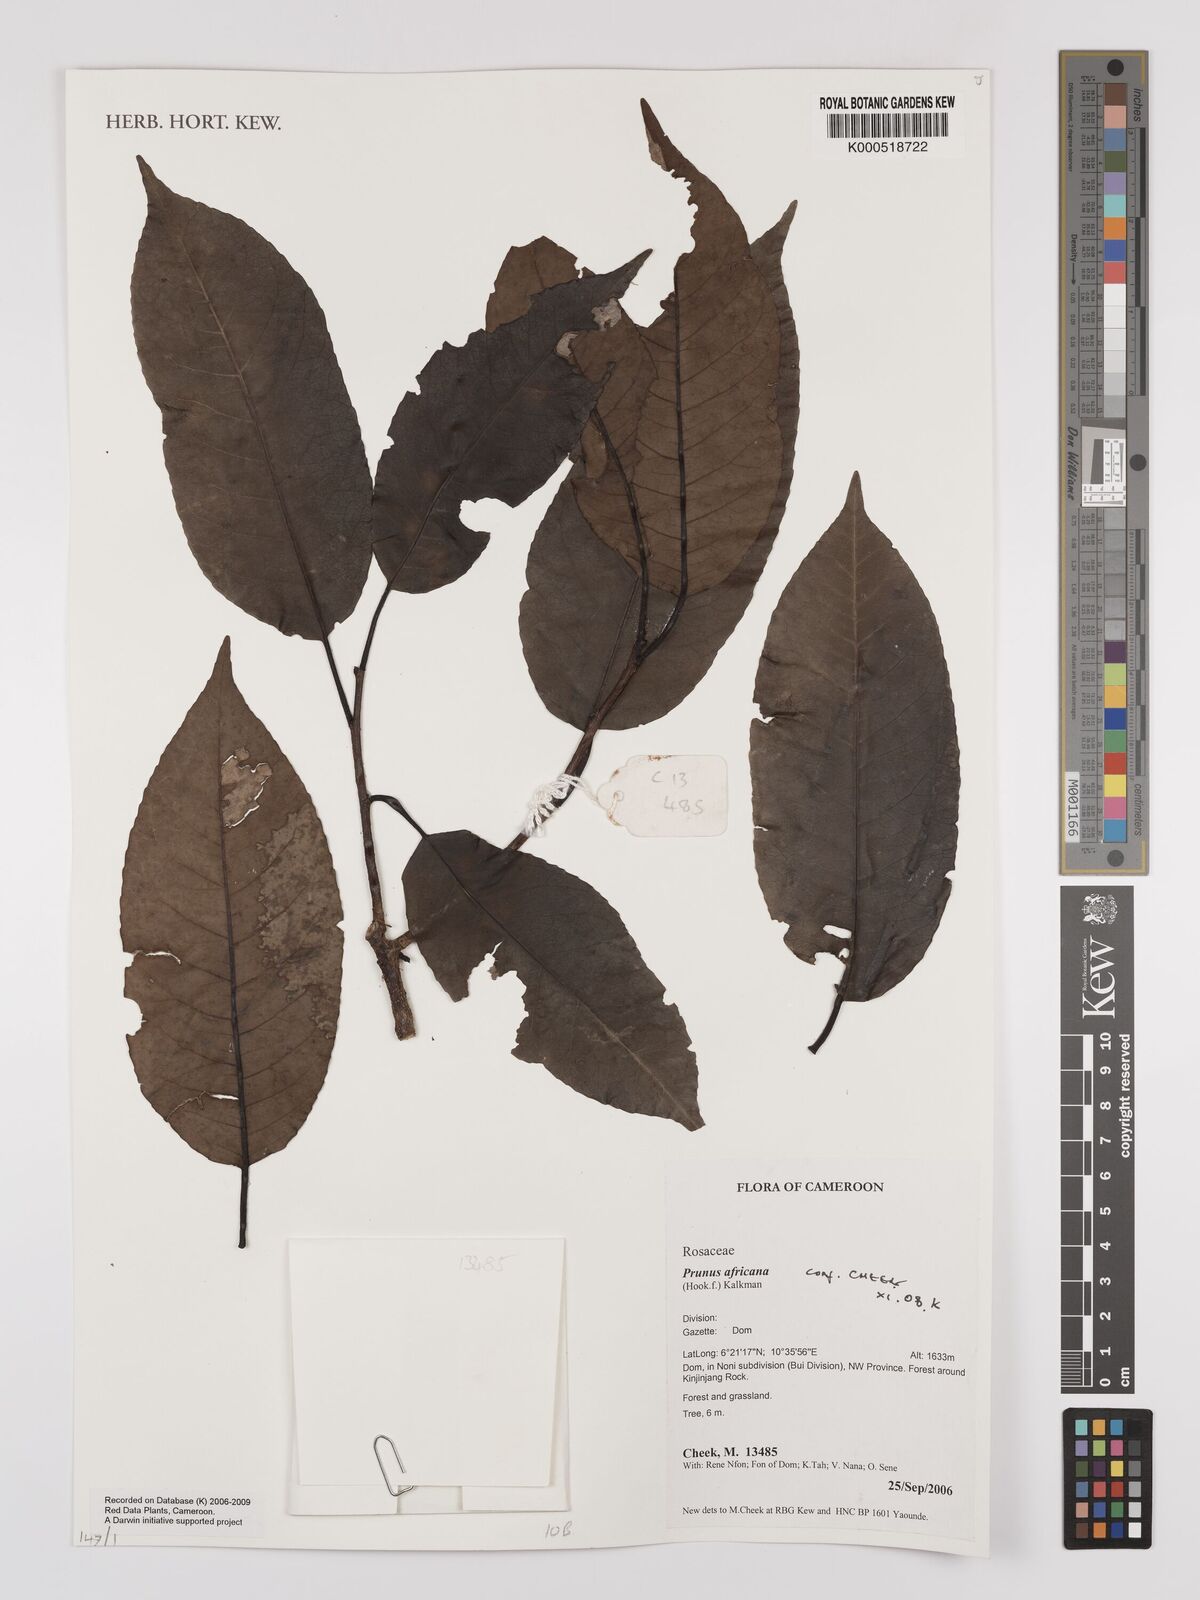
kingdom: Plantae
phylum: Tracheophyta
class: Magnoliopsida
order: Rosales
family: Rosaceae
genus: Prunus
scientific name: Prunus africana
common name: African cherry
